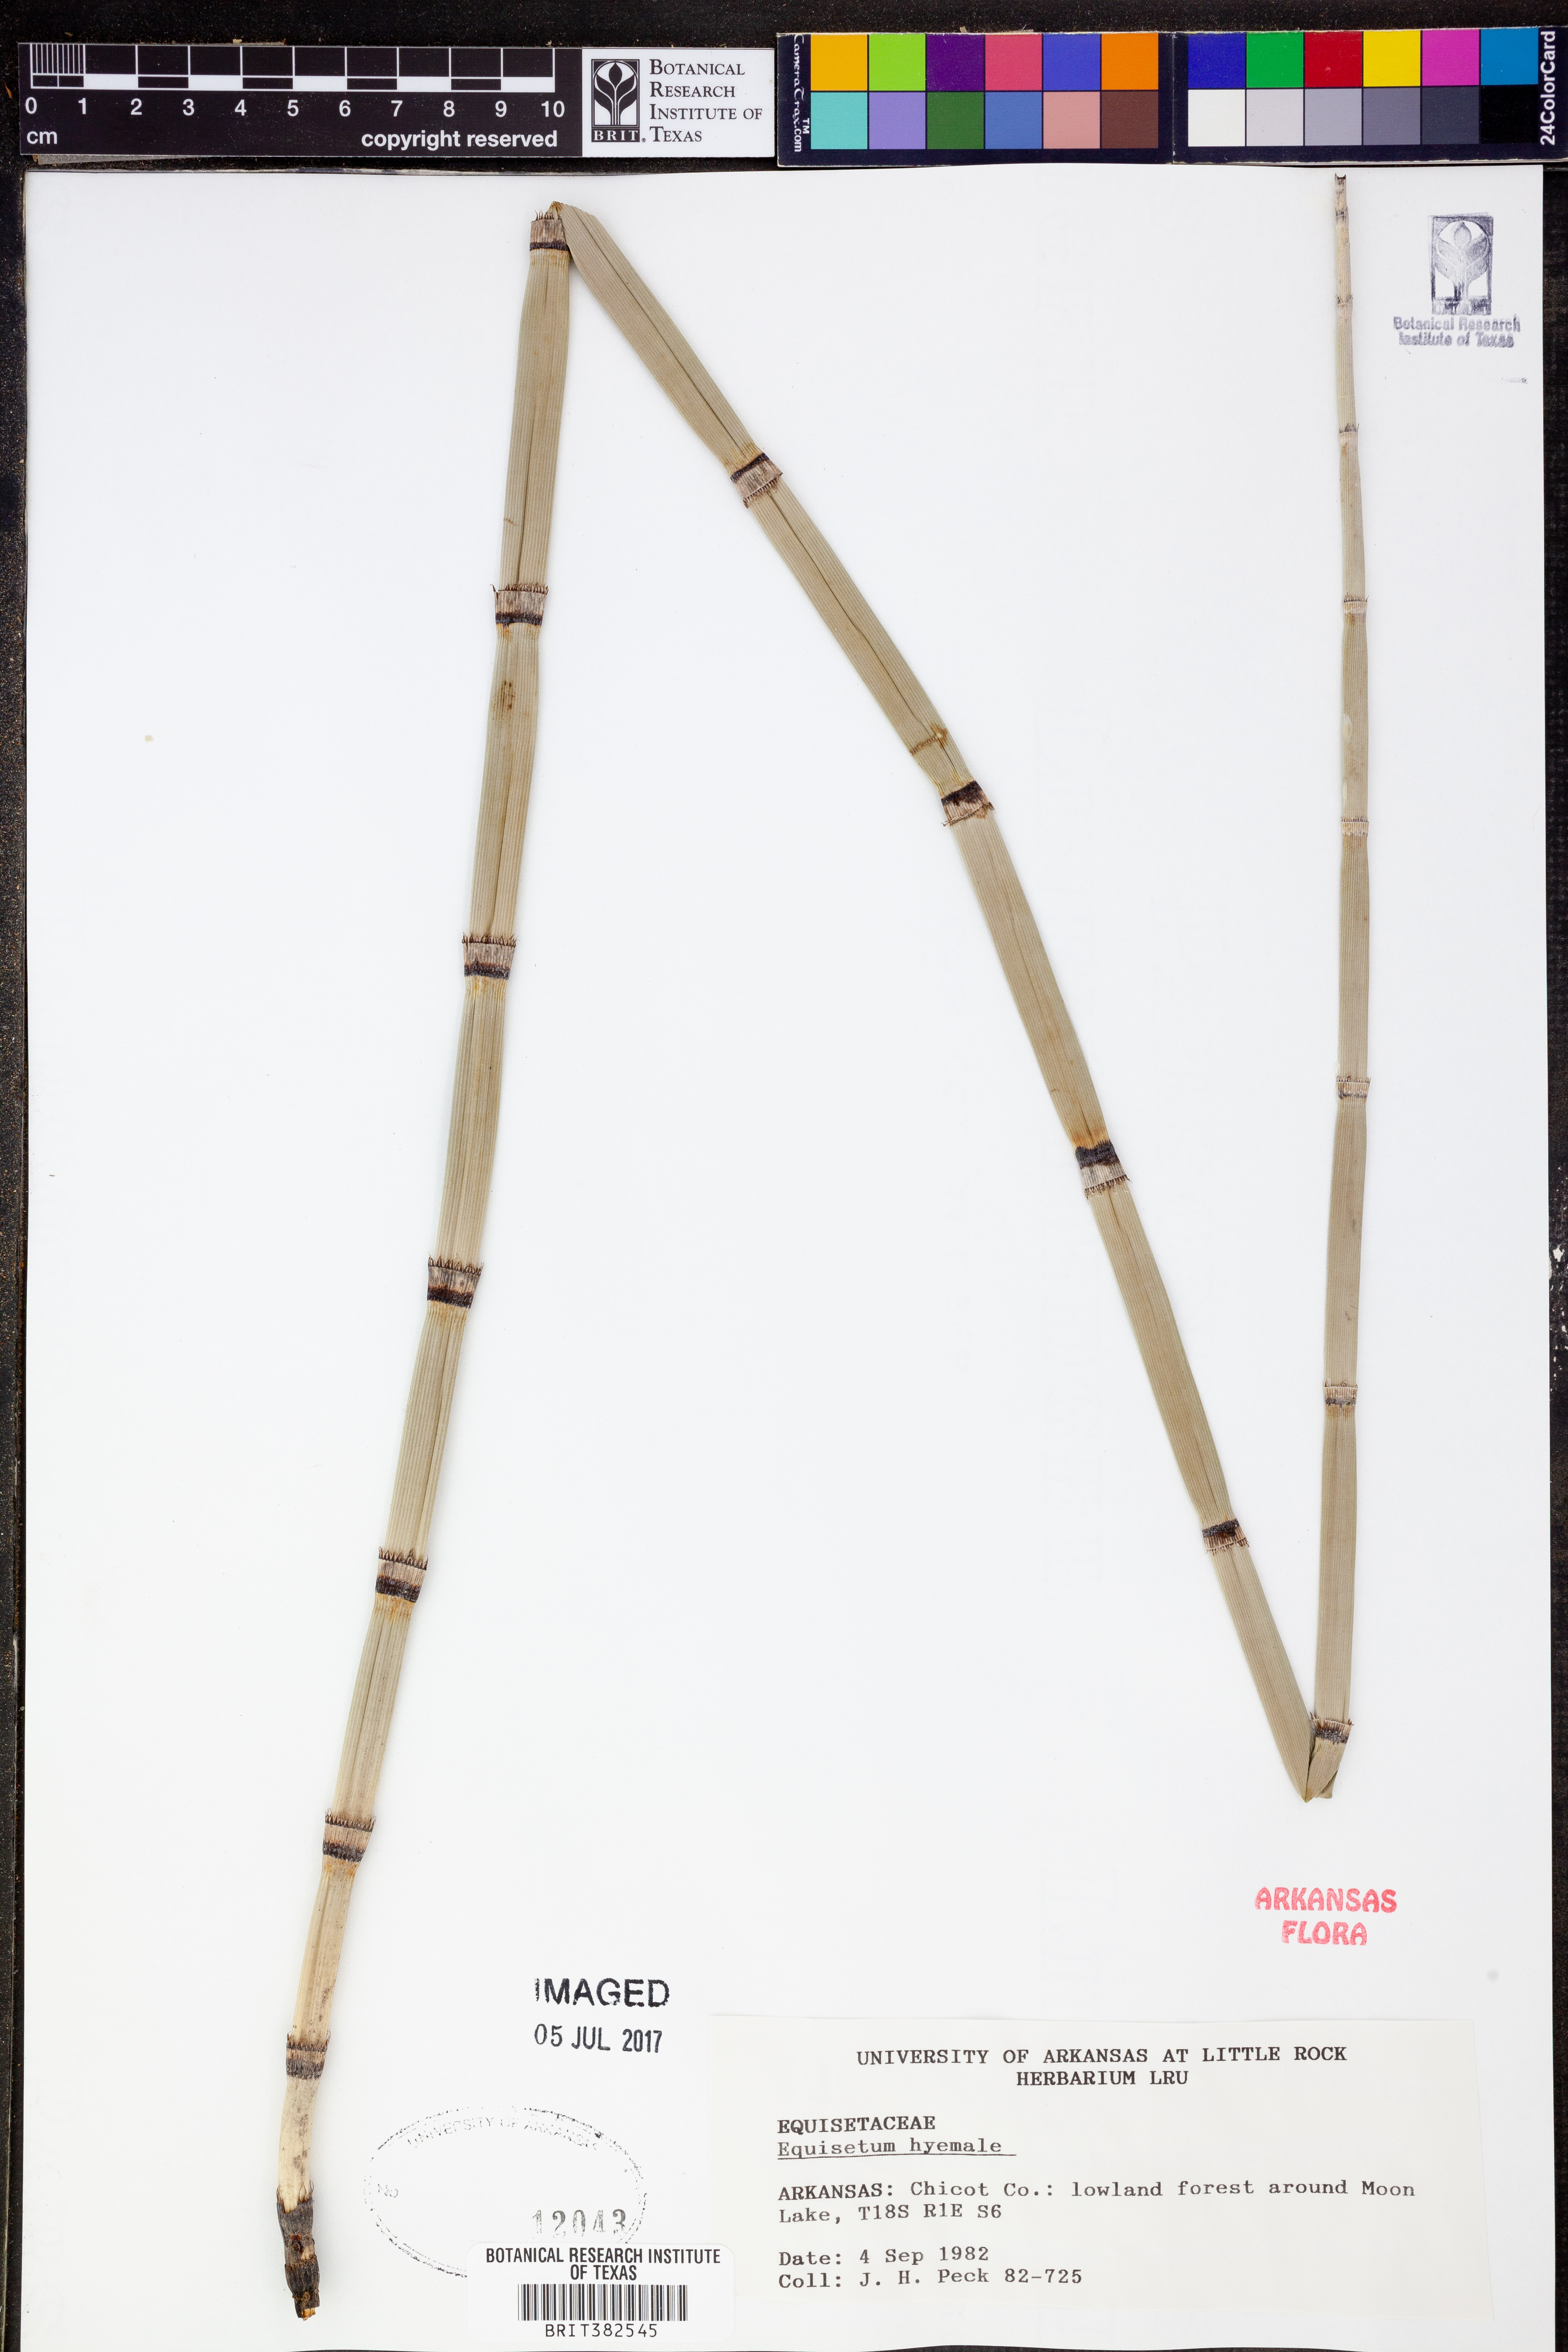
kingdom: Plantae
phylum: Tracheophyta
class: Polypodiopsida
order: Equisetales
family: Equisetaceae
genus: Equisetum
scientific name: Equisetum hyemale
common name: Rough horsetail
